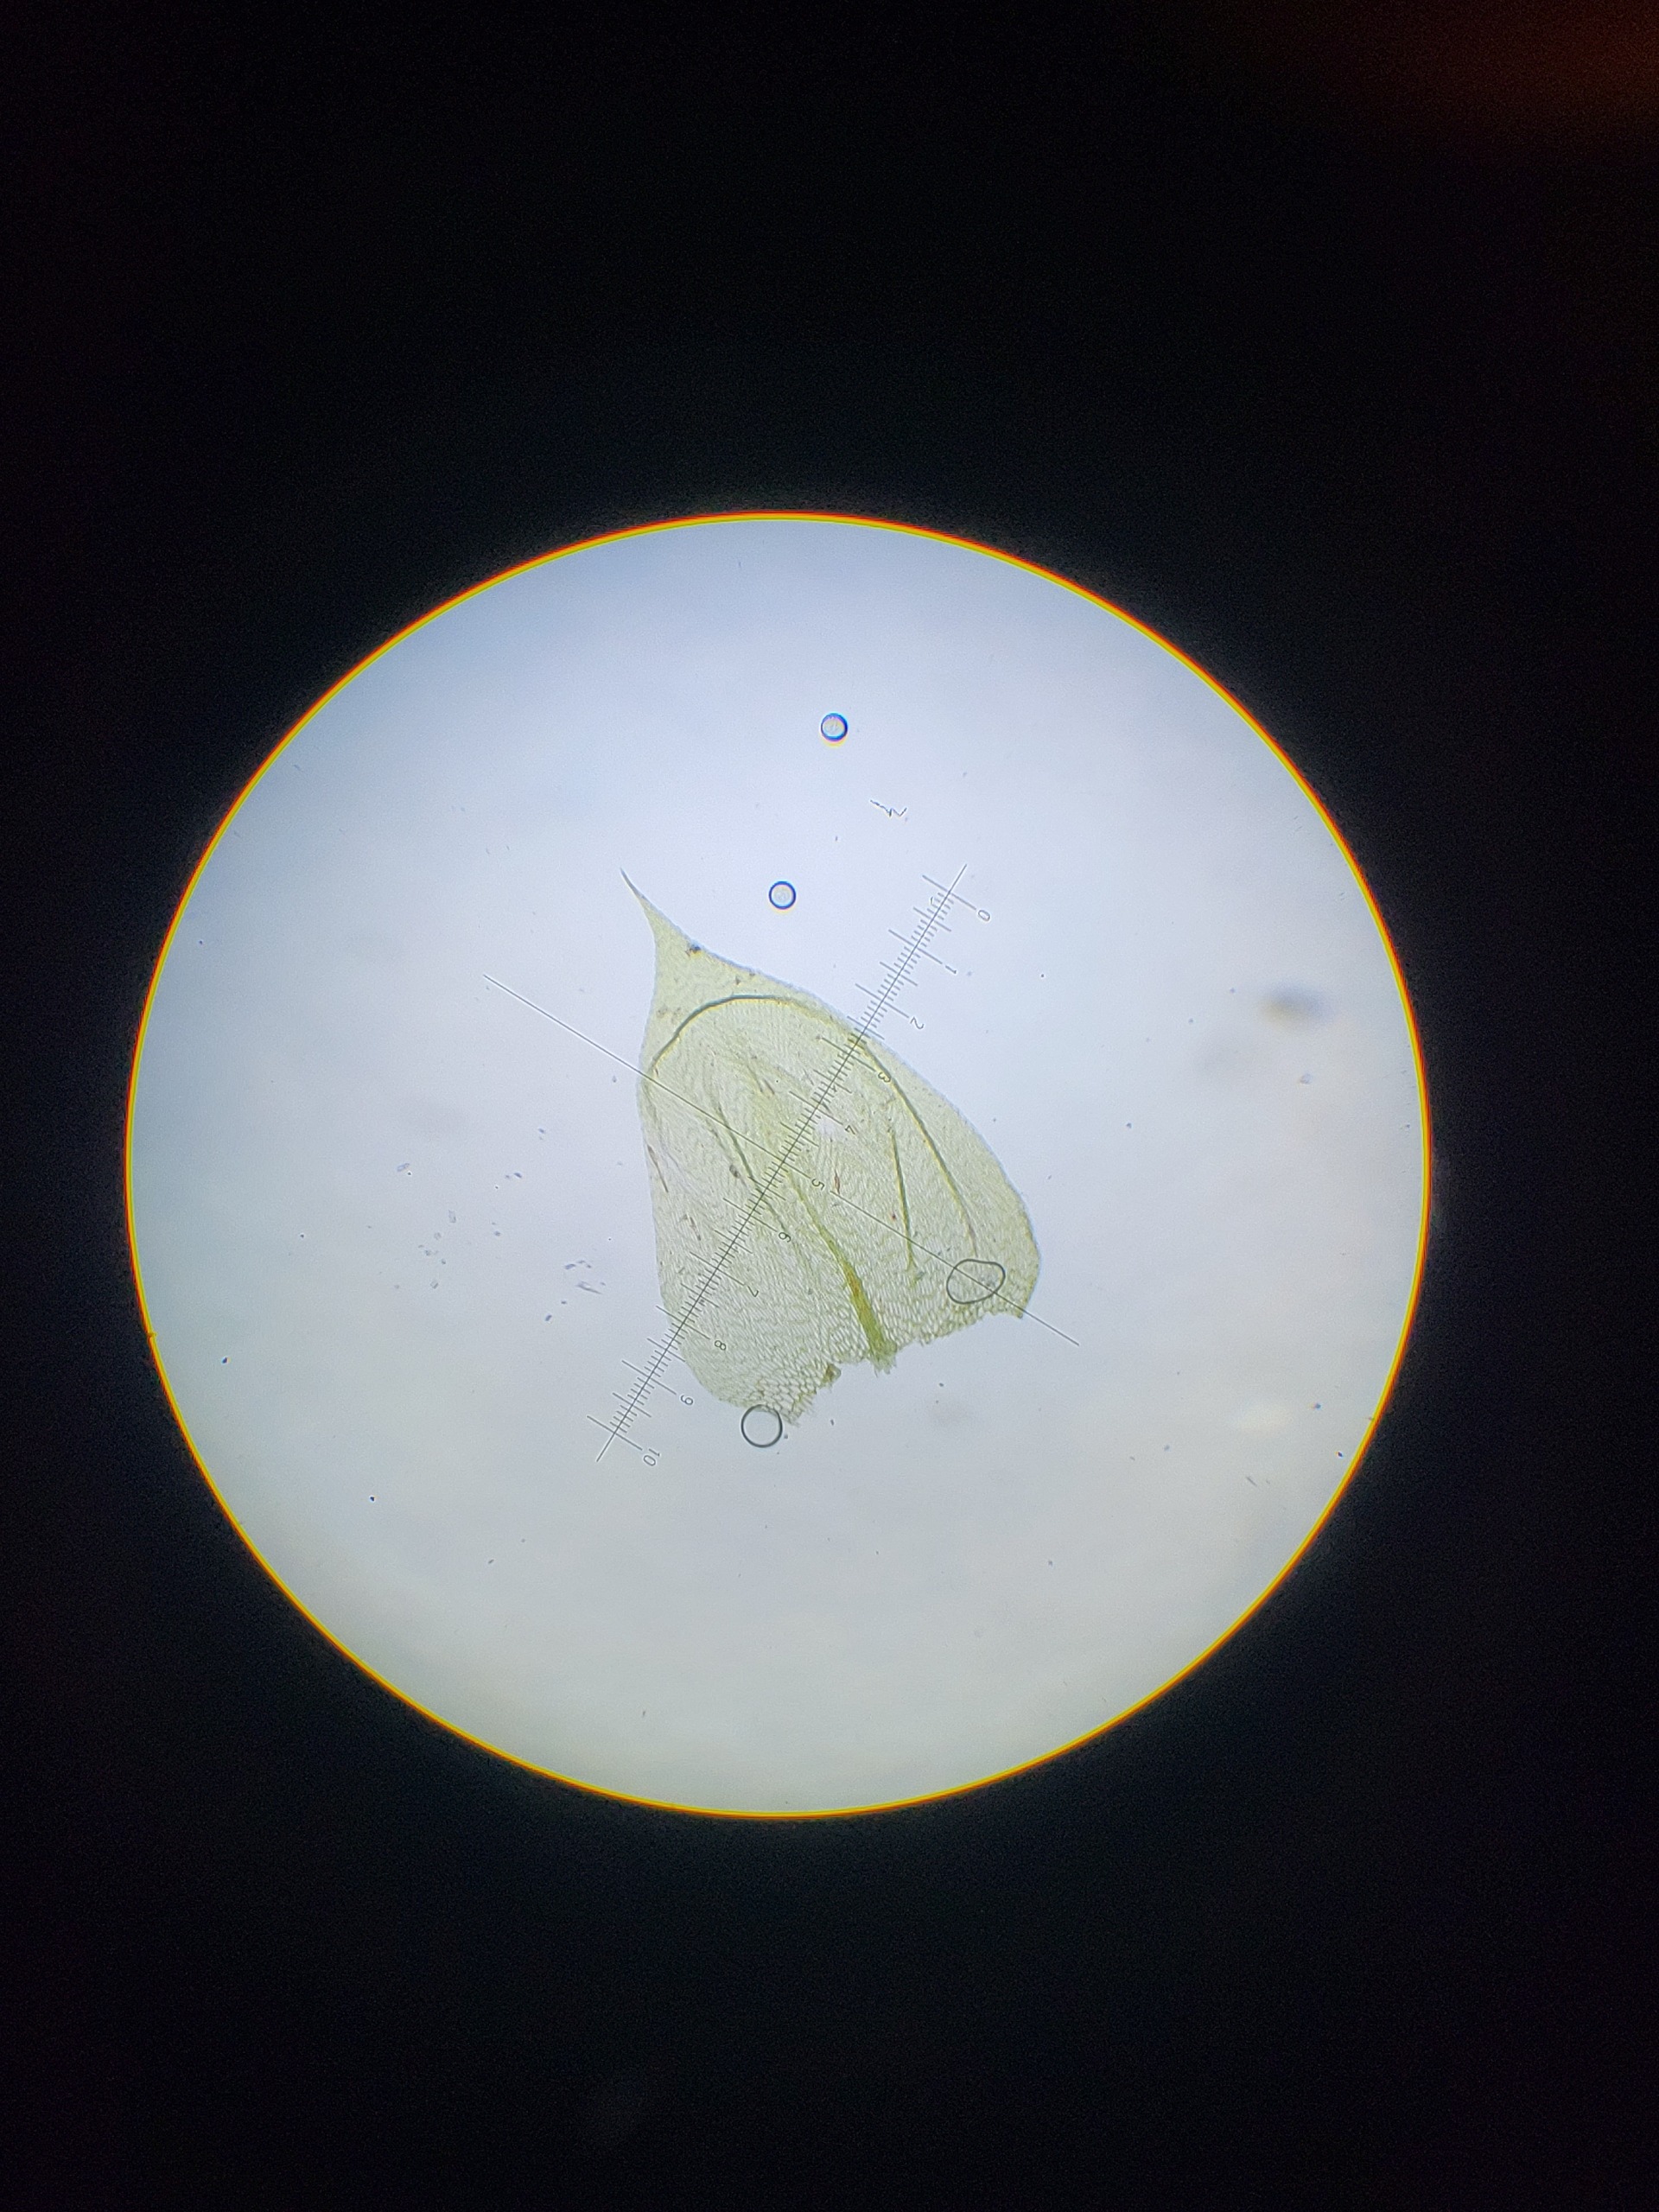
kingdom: Plantae
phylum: Bryophyta
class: Bryopsida
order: Hypnales
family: Brachytheciaceae
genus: Brachythecium
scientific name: Brachythecium rutabulum
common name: Almindelig kortkapsel
